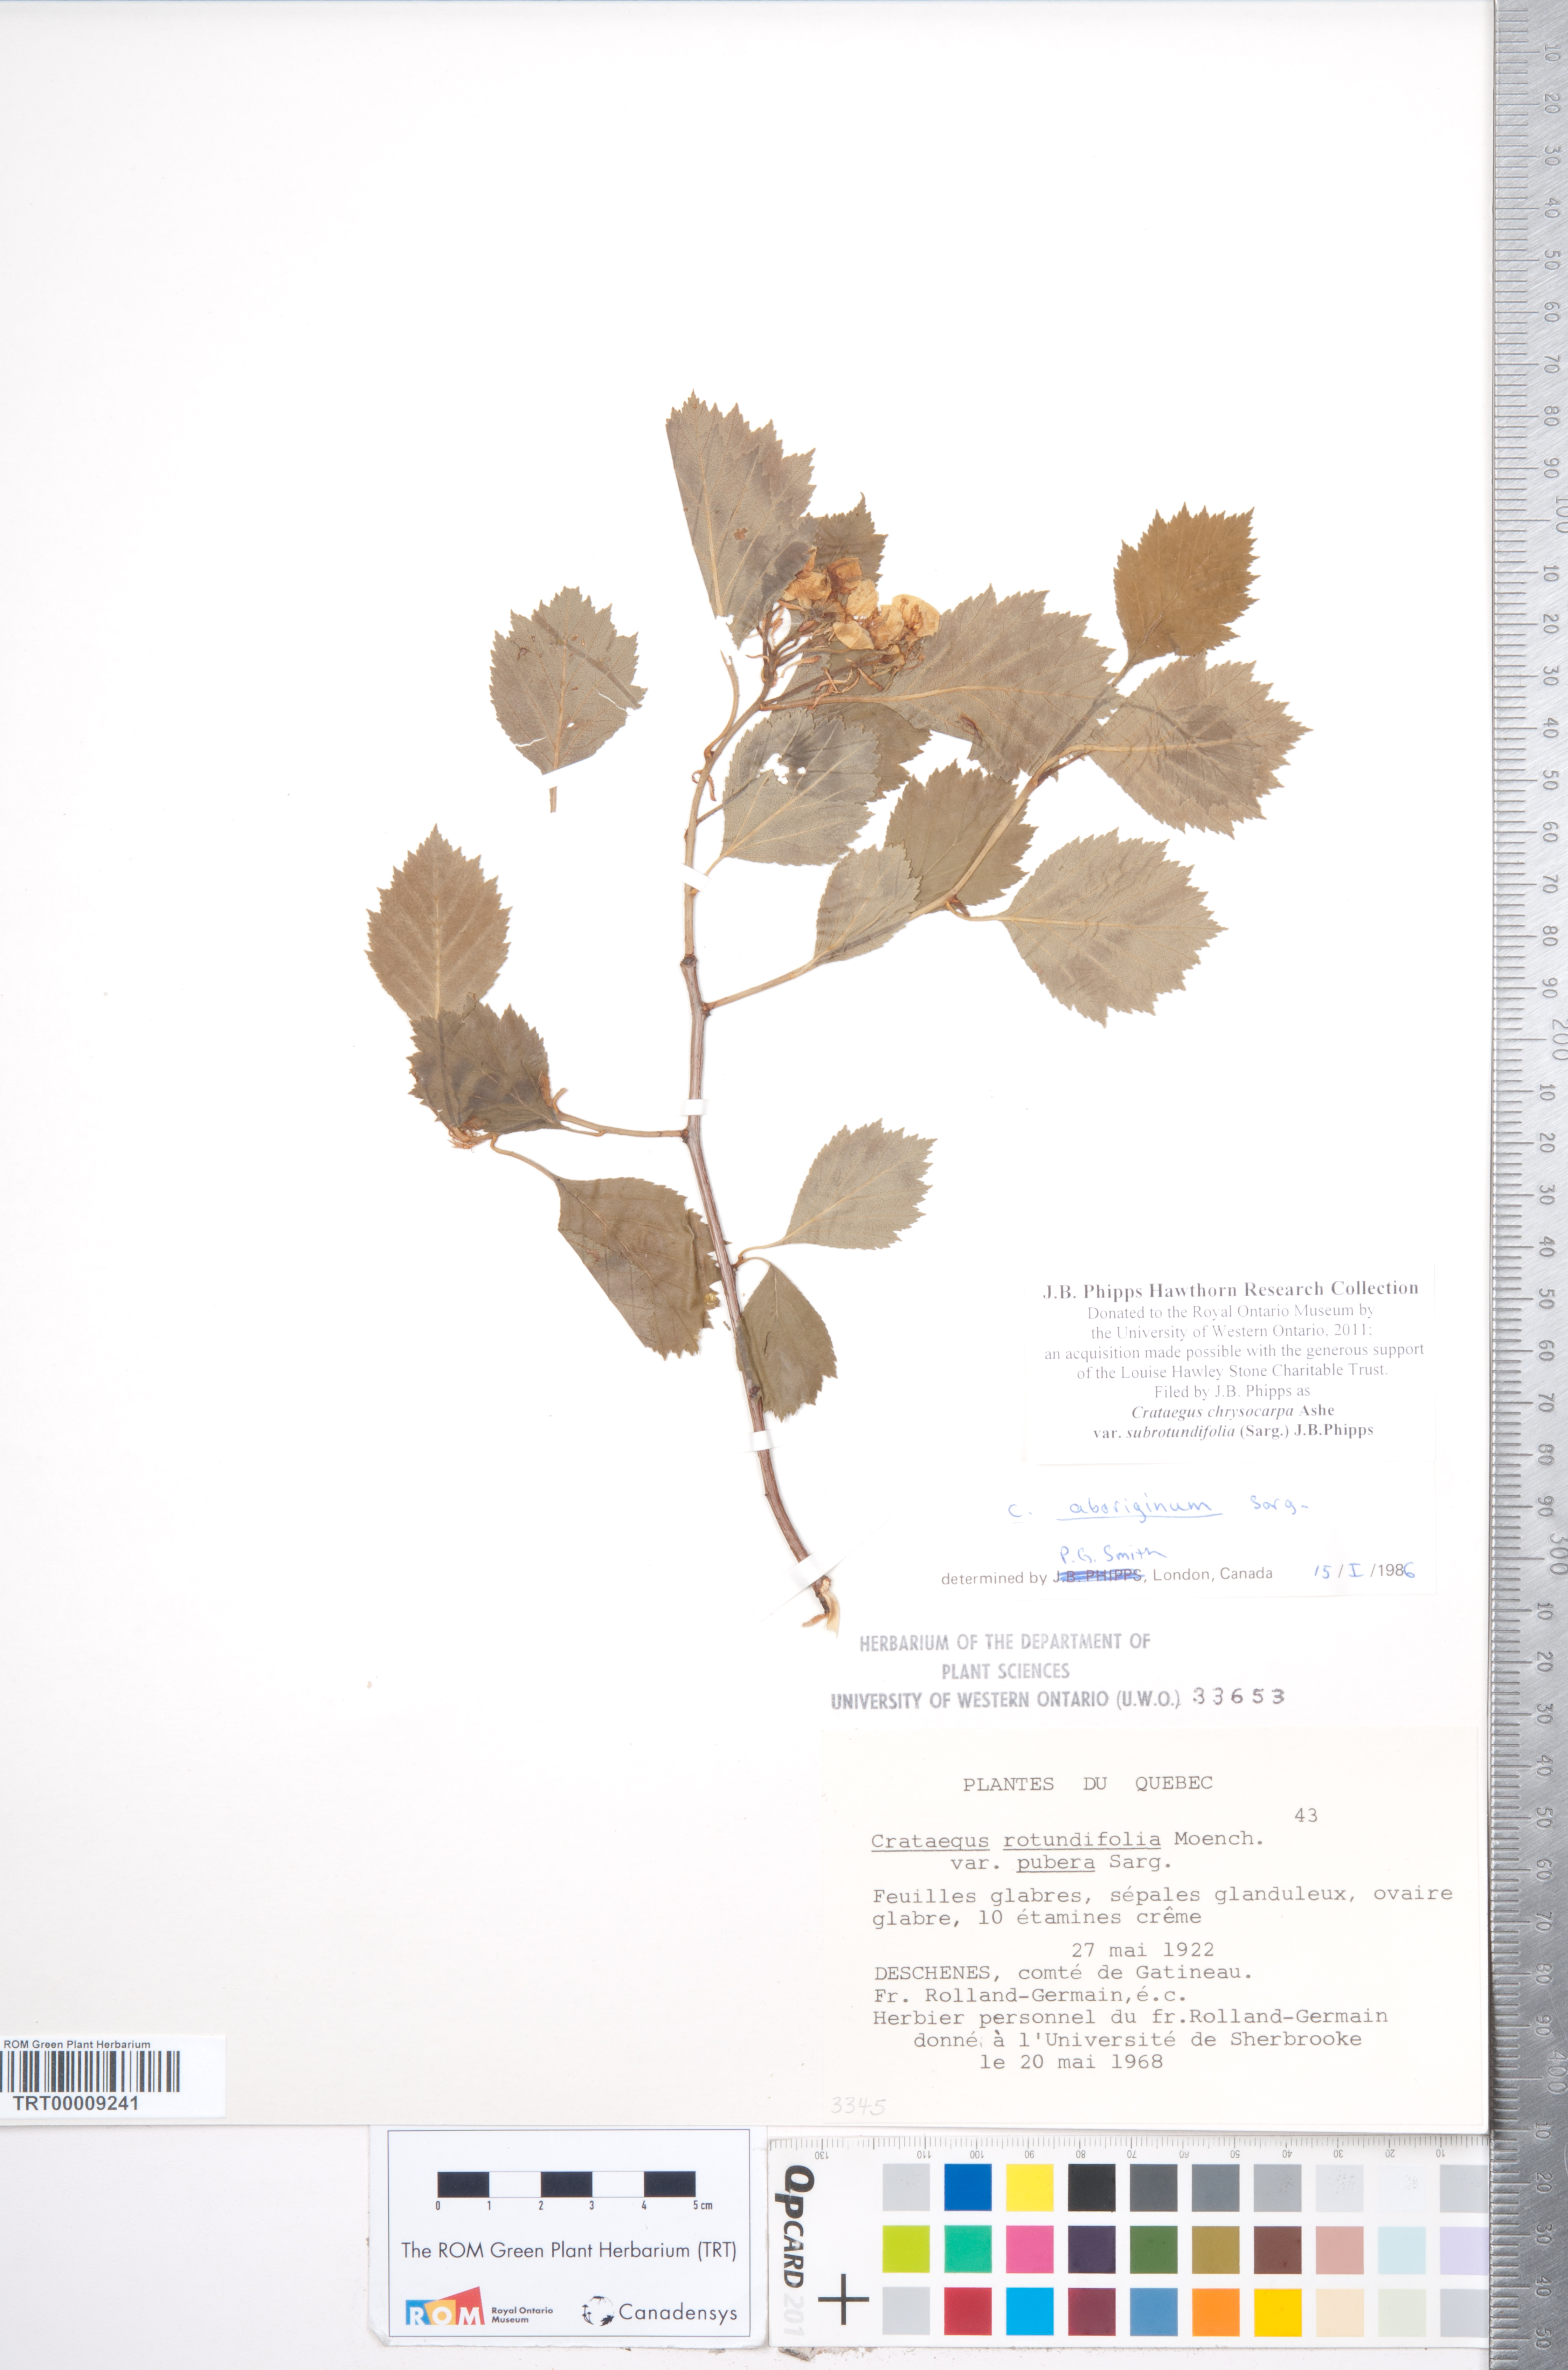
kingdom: Plantae
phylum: Tracheophyta
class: Magnoliopsida
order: Rosales
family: Rosaceae
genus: Crataegus
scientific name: Crataegus chrysocarpa
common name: Fire-berry hawthorn
